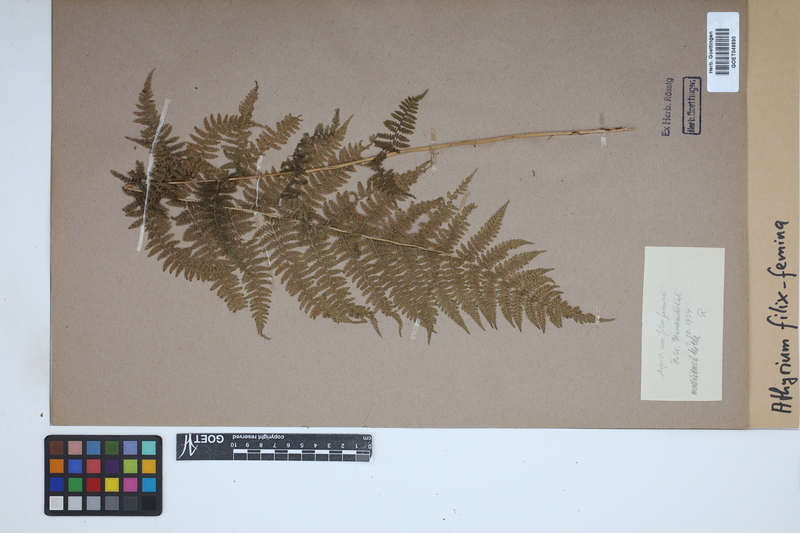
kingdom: Plantae
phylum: Tracheophyta
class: Polypodiopsida
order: Polypodiales
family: Athyriaceae
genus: Athyrium
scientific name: Athyrium filix-femina
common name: Lady fern
